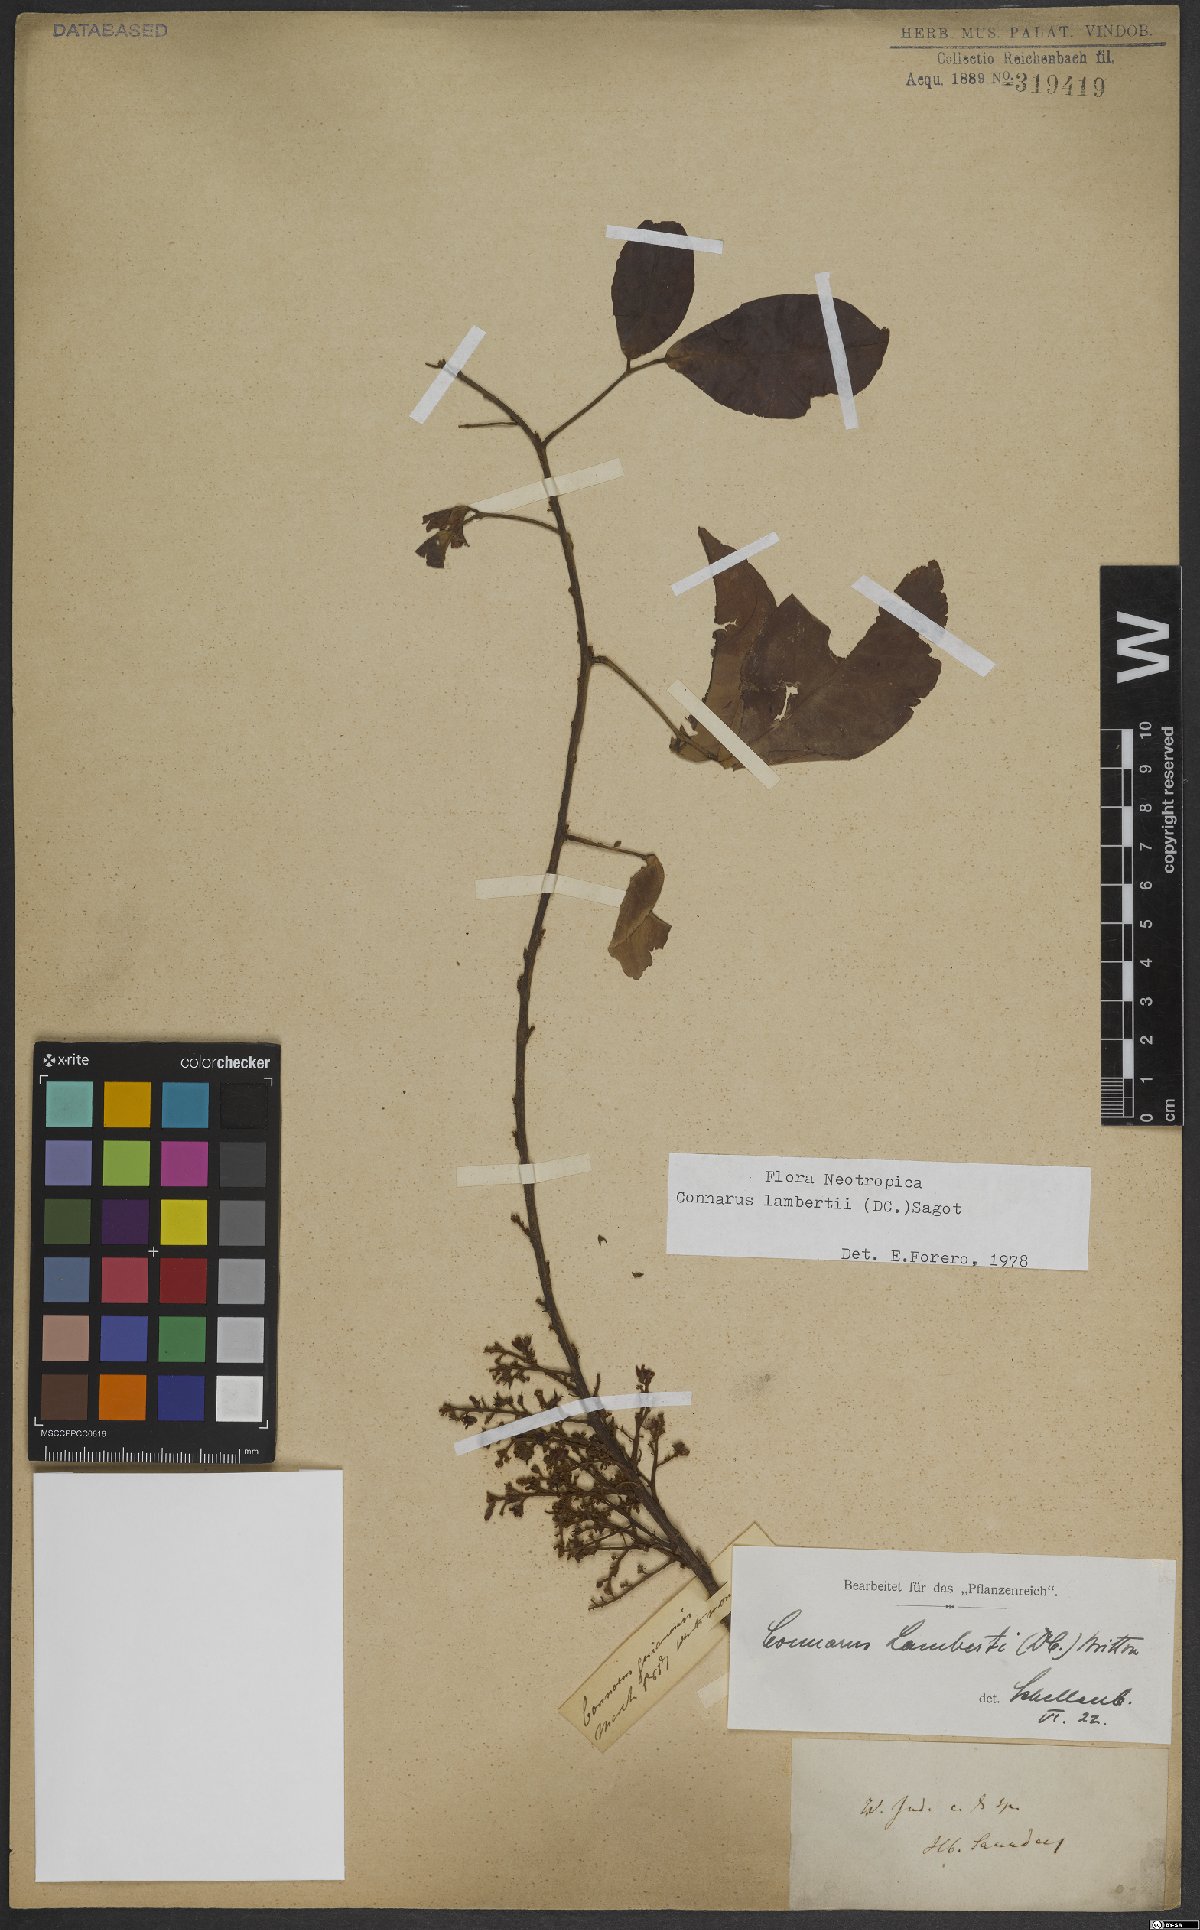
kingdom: Plantae
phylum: Tracheophyta
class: Magnoliopsida
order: Oxalidales
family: Connaraceae
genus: Connarus
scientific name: Connarus lambertii
